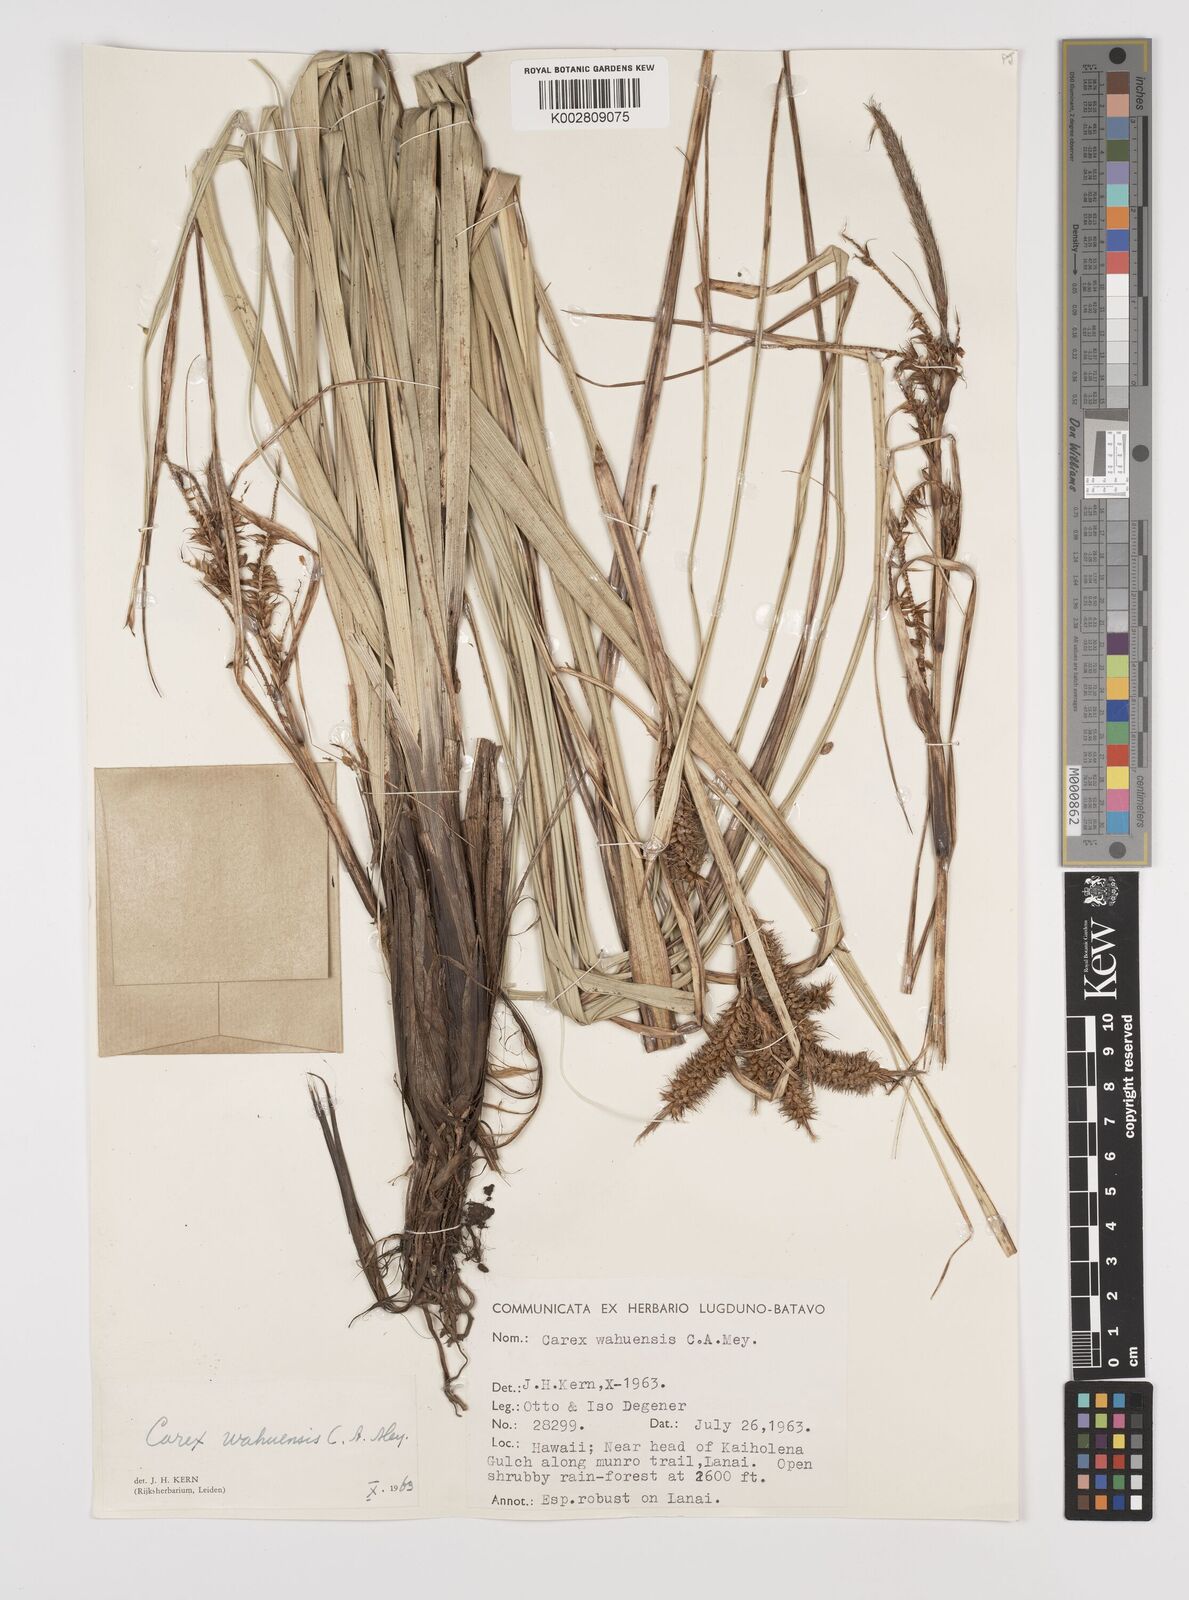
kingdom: Plantae
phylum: Tracheophyta
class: Liliopsida
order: Poales
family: Cyperaceae
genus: Carex
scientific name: Carex wahuensis
